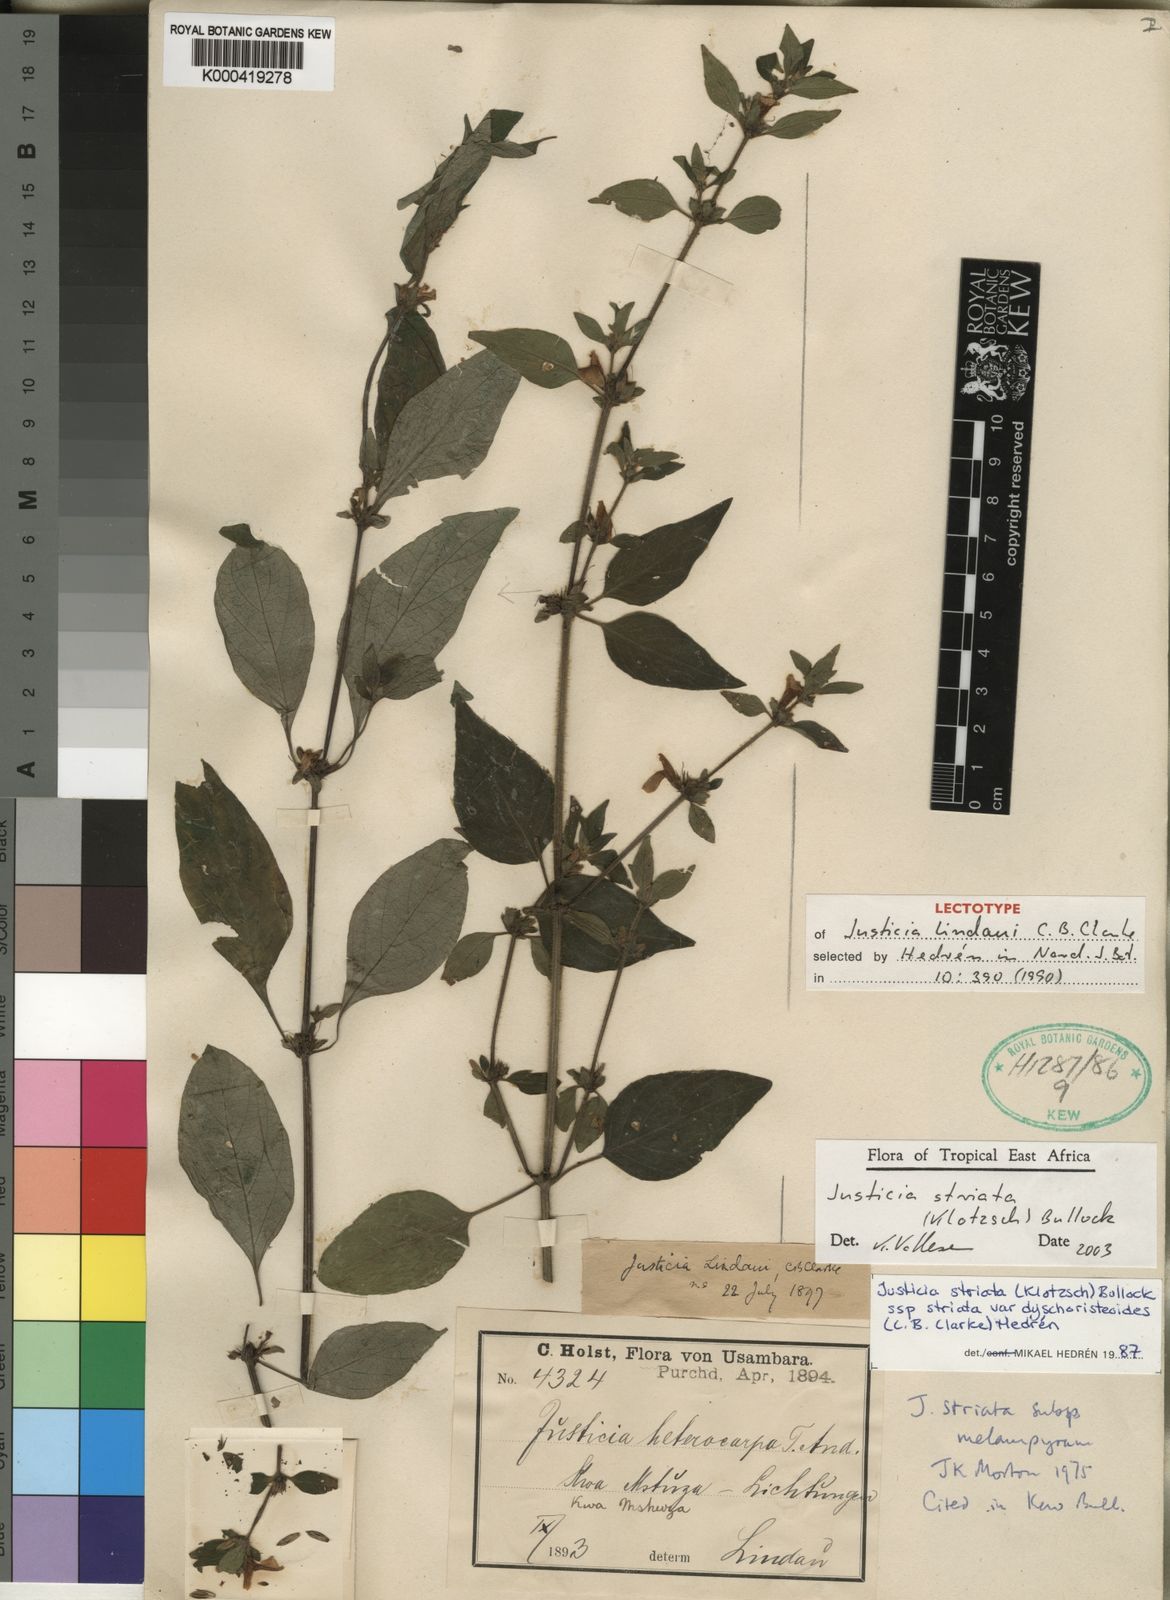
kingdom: Plantae
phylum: Tracheophyta
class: Magnoliopsida
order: Lamiales
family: Acanthaceae
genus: Justicia
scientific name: Justicia striata
